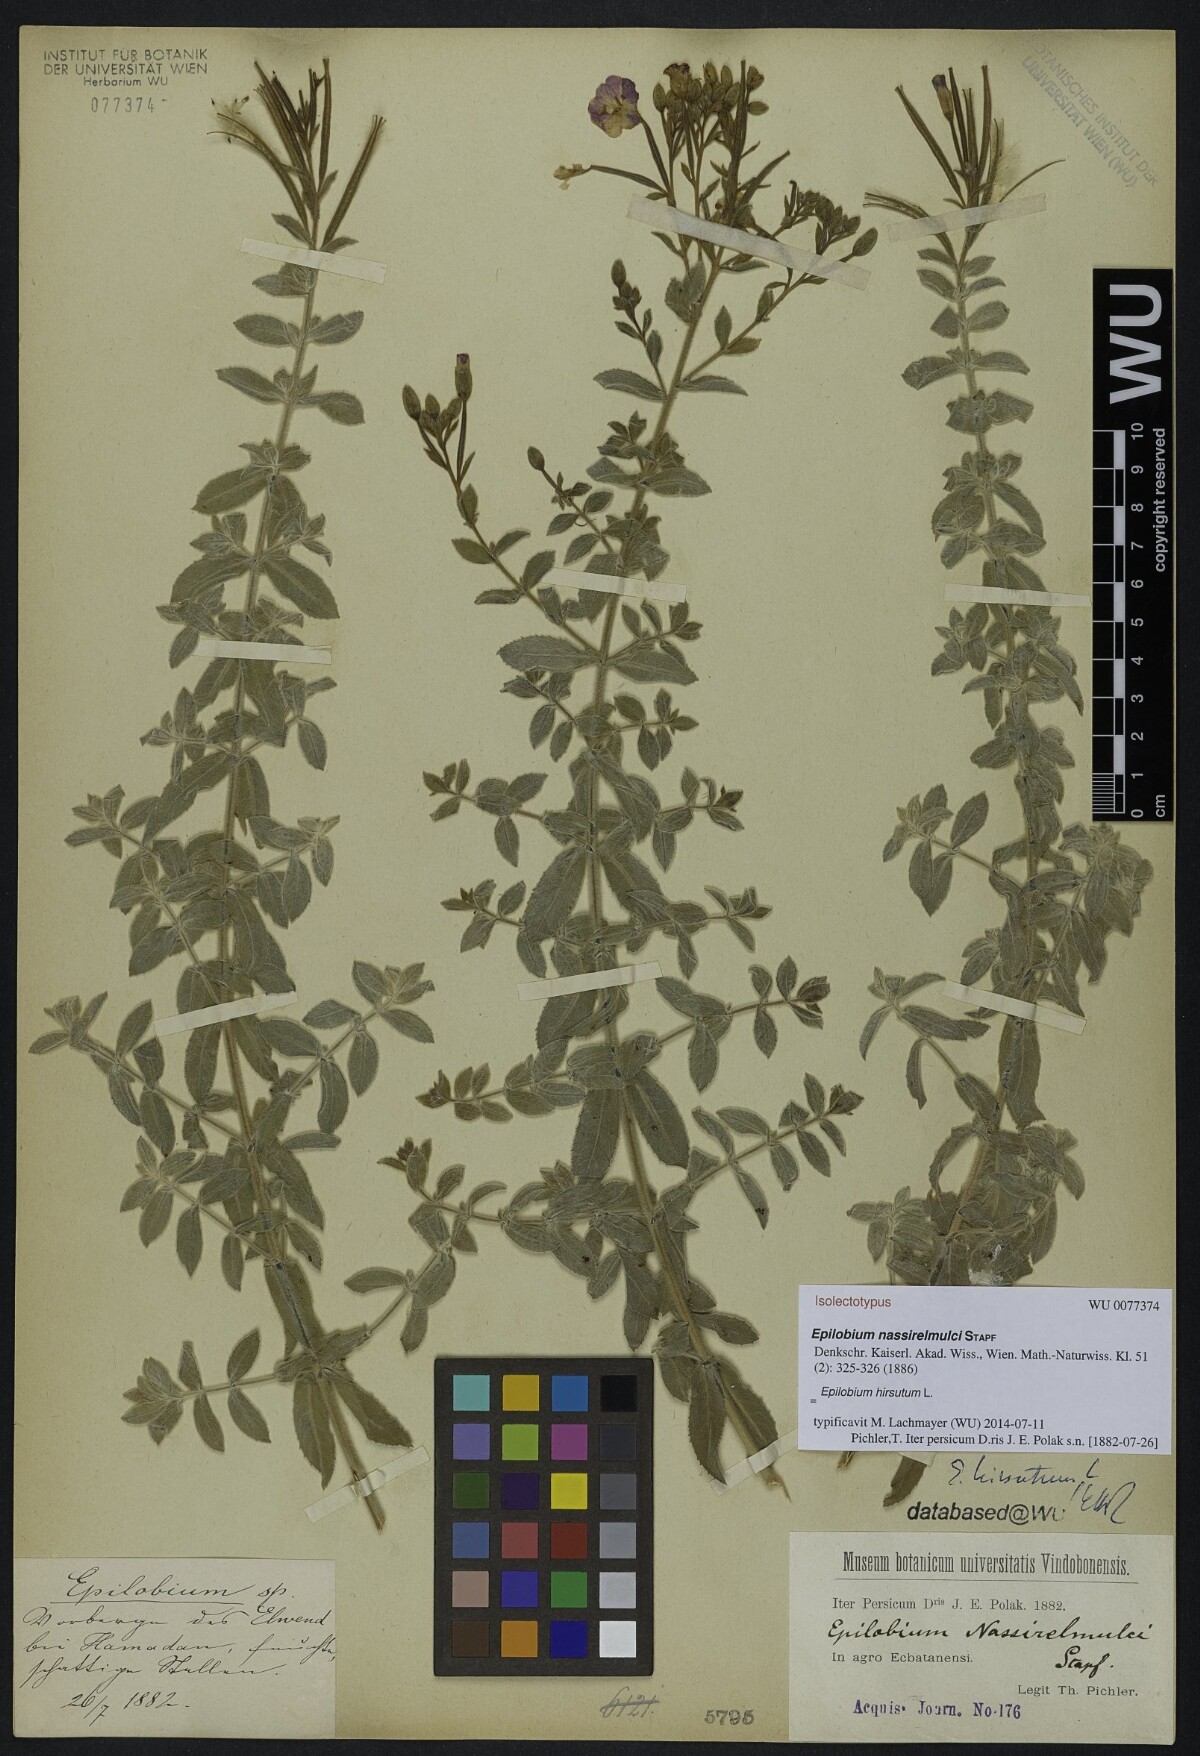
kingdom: Plantae
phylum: Tracheophyta
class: Magnoliopsida
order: Myrtales
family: Onagraceae
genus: Epilobium
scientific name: Epilobium nassirelmulcii
